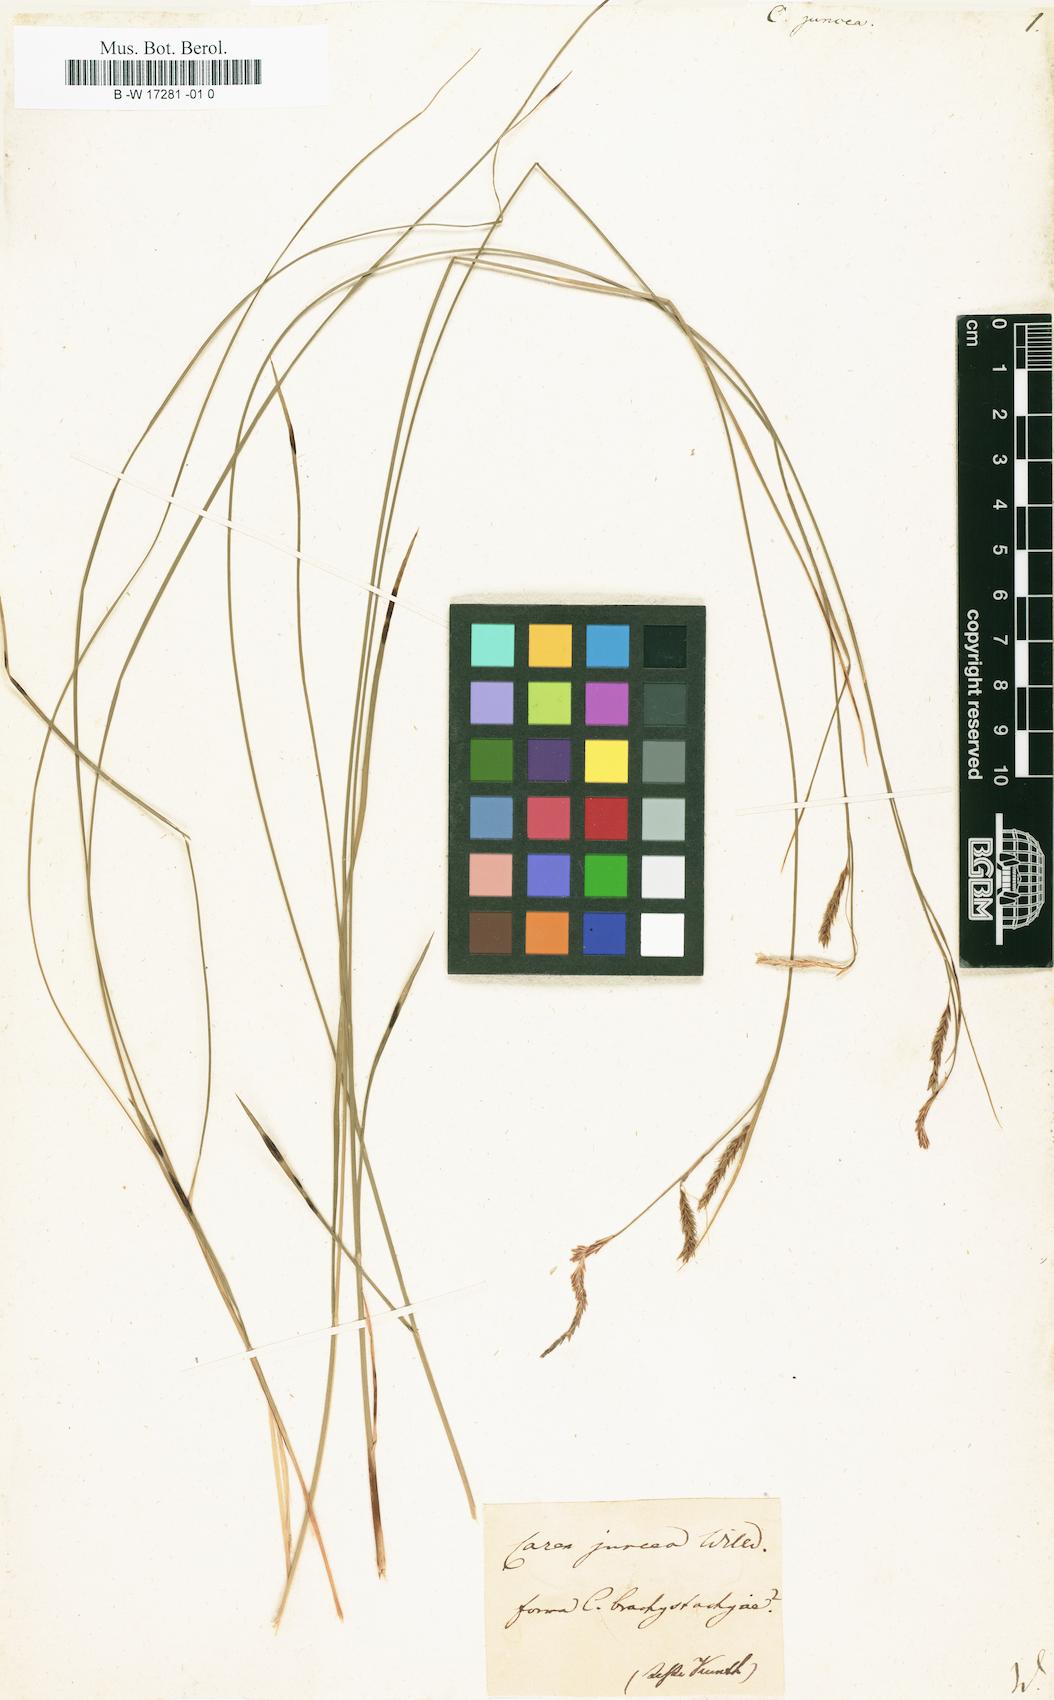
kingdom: Plantae
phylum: Tracheophyta
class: Liliopsida
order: Poales
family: Cyperaceae
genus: Carex
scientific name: Carex
